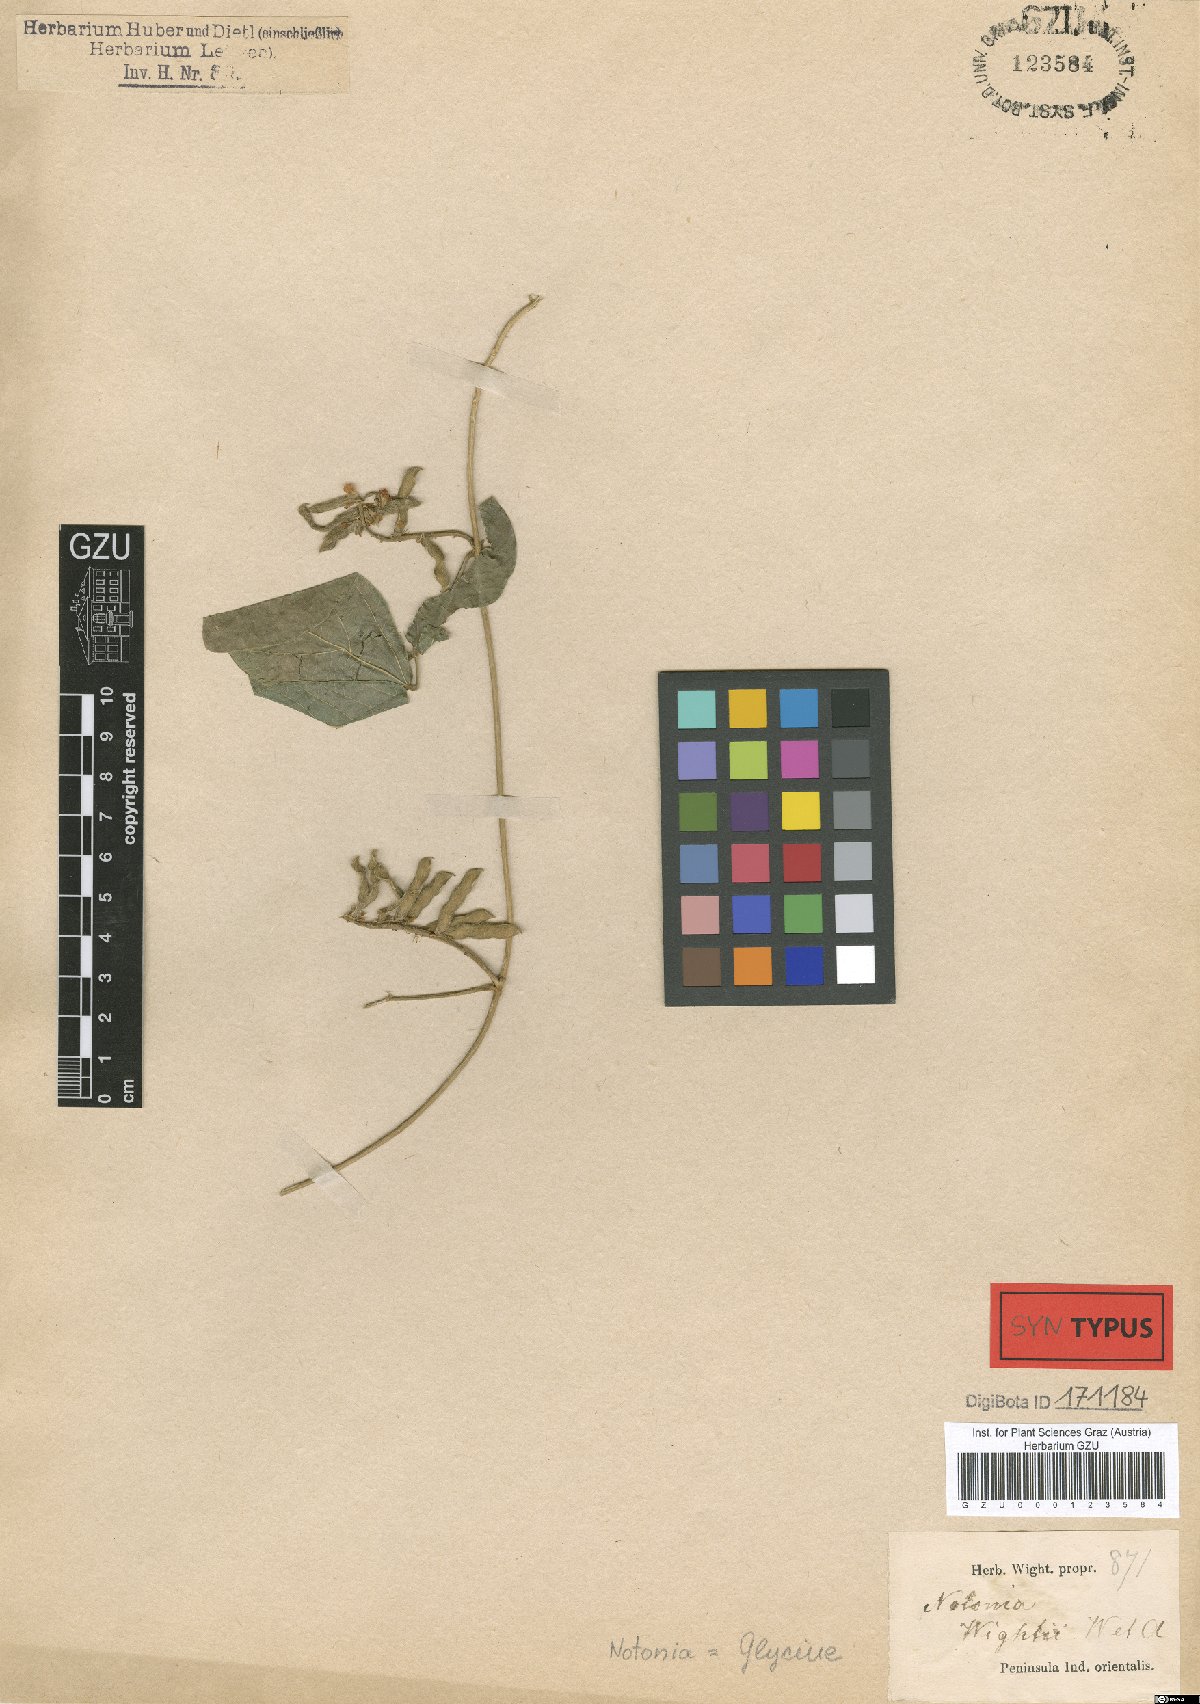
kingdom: Plantae
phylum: Tracheophyta
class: Magnoliopsida
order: Fabales
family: Fabaceae
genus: Neonotonia
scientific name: Neonotonia wightii
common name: Perennial soybean
